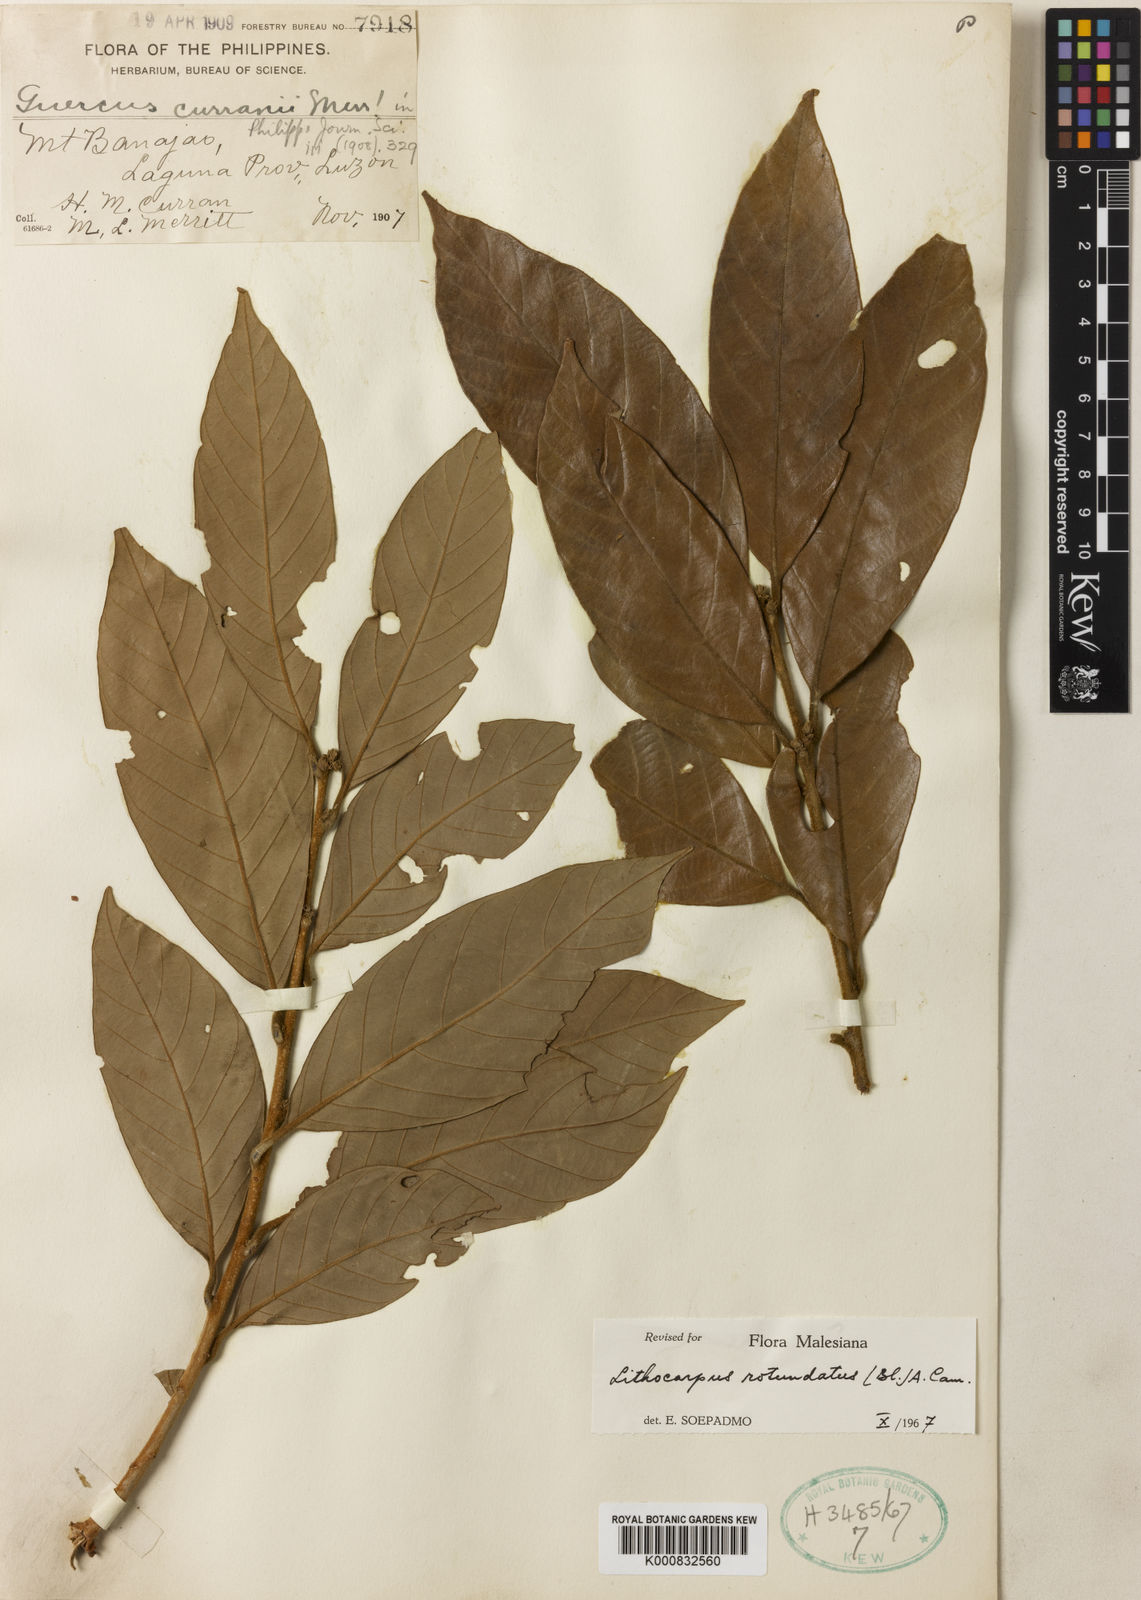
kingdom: Plantae
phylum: Tracheophyta
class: Magnoliopsida
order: Fagales
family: Fagaceae
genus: Lithocarpus
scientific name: Lithocarpus rotundatus
